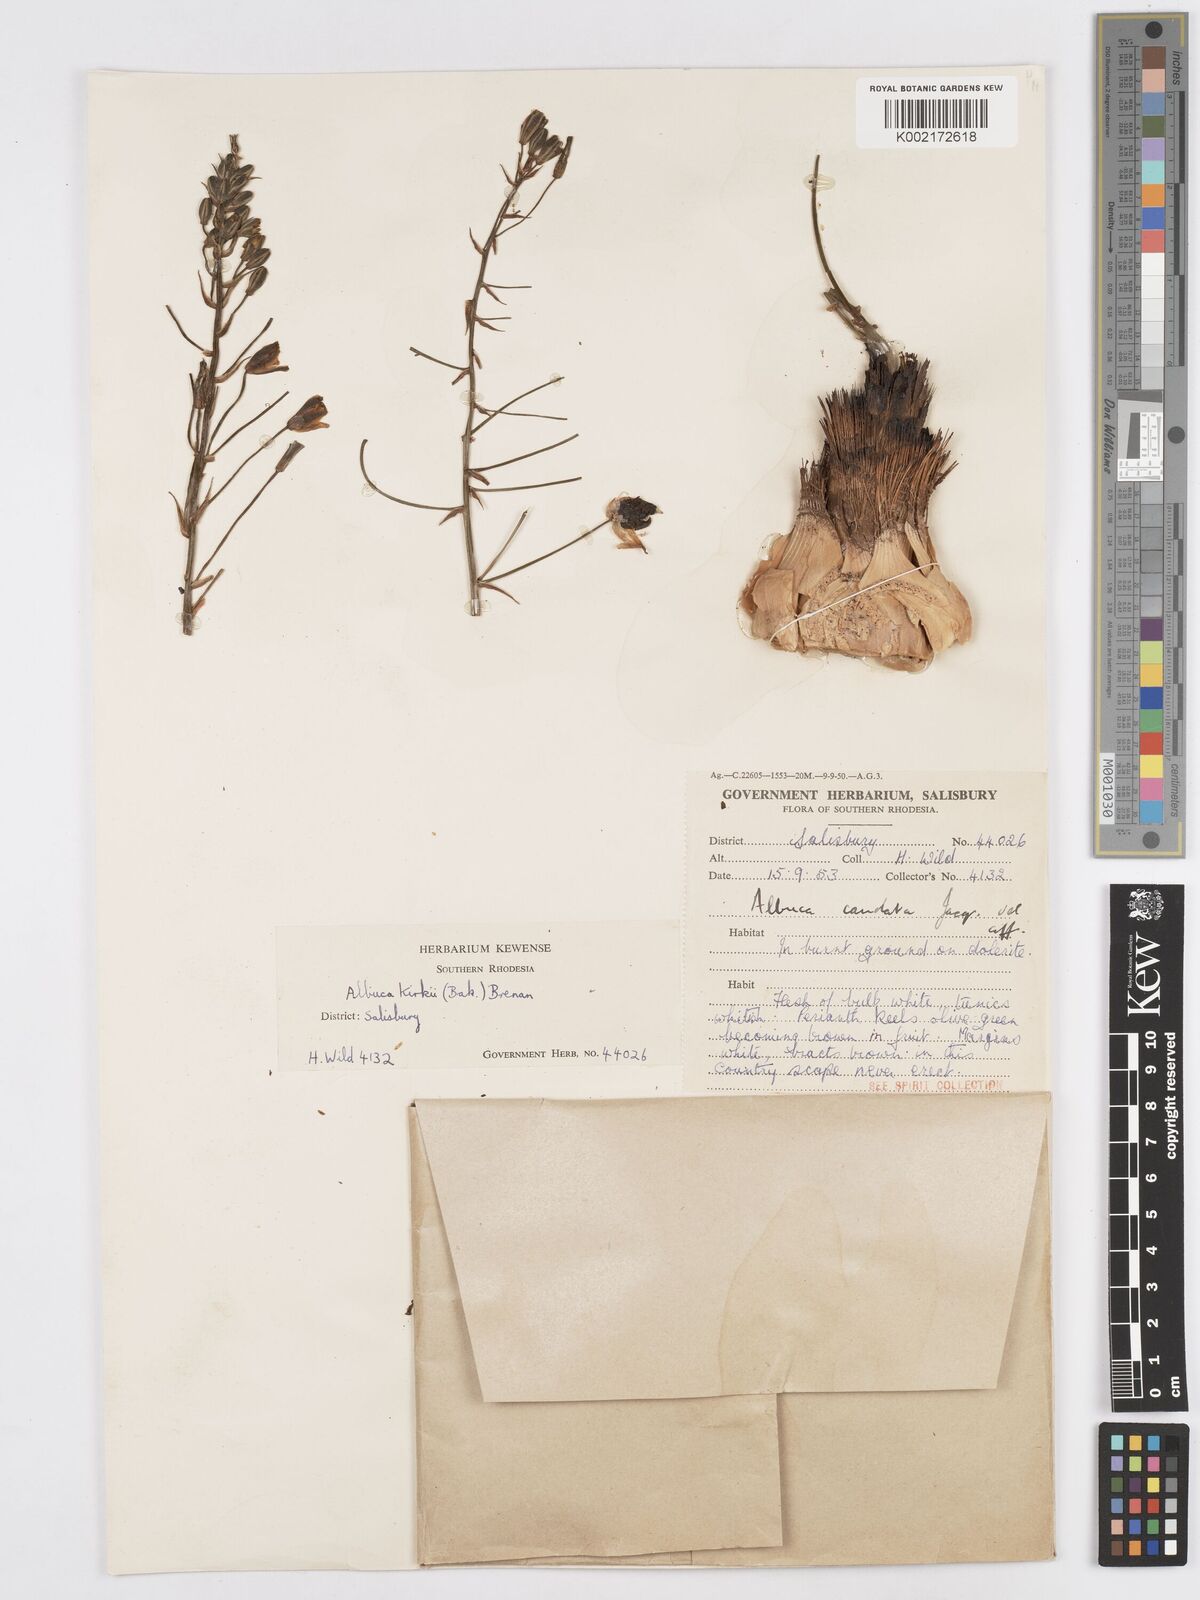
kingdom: Plantae
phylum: Tracheophyta
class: Liliopsida
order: Asparagales
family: Asparagaceae
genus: Albuca
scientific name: Albuca kirkii
